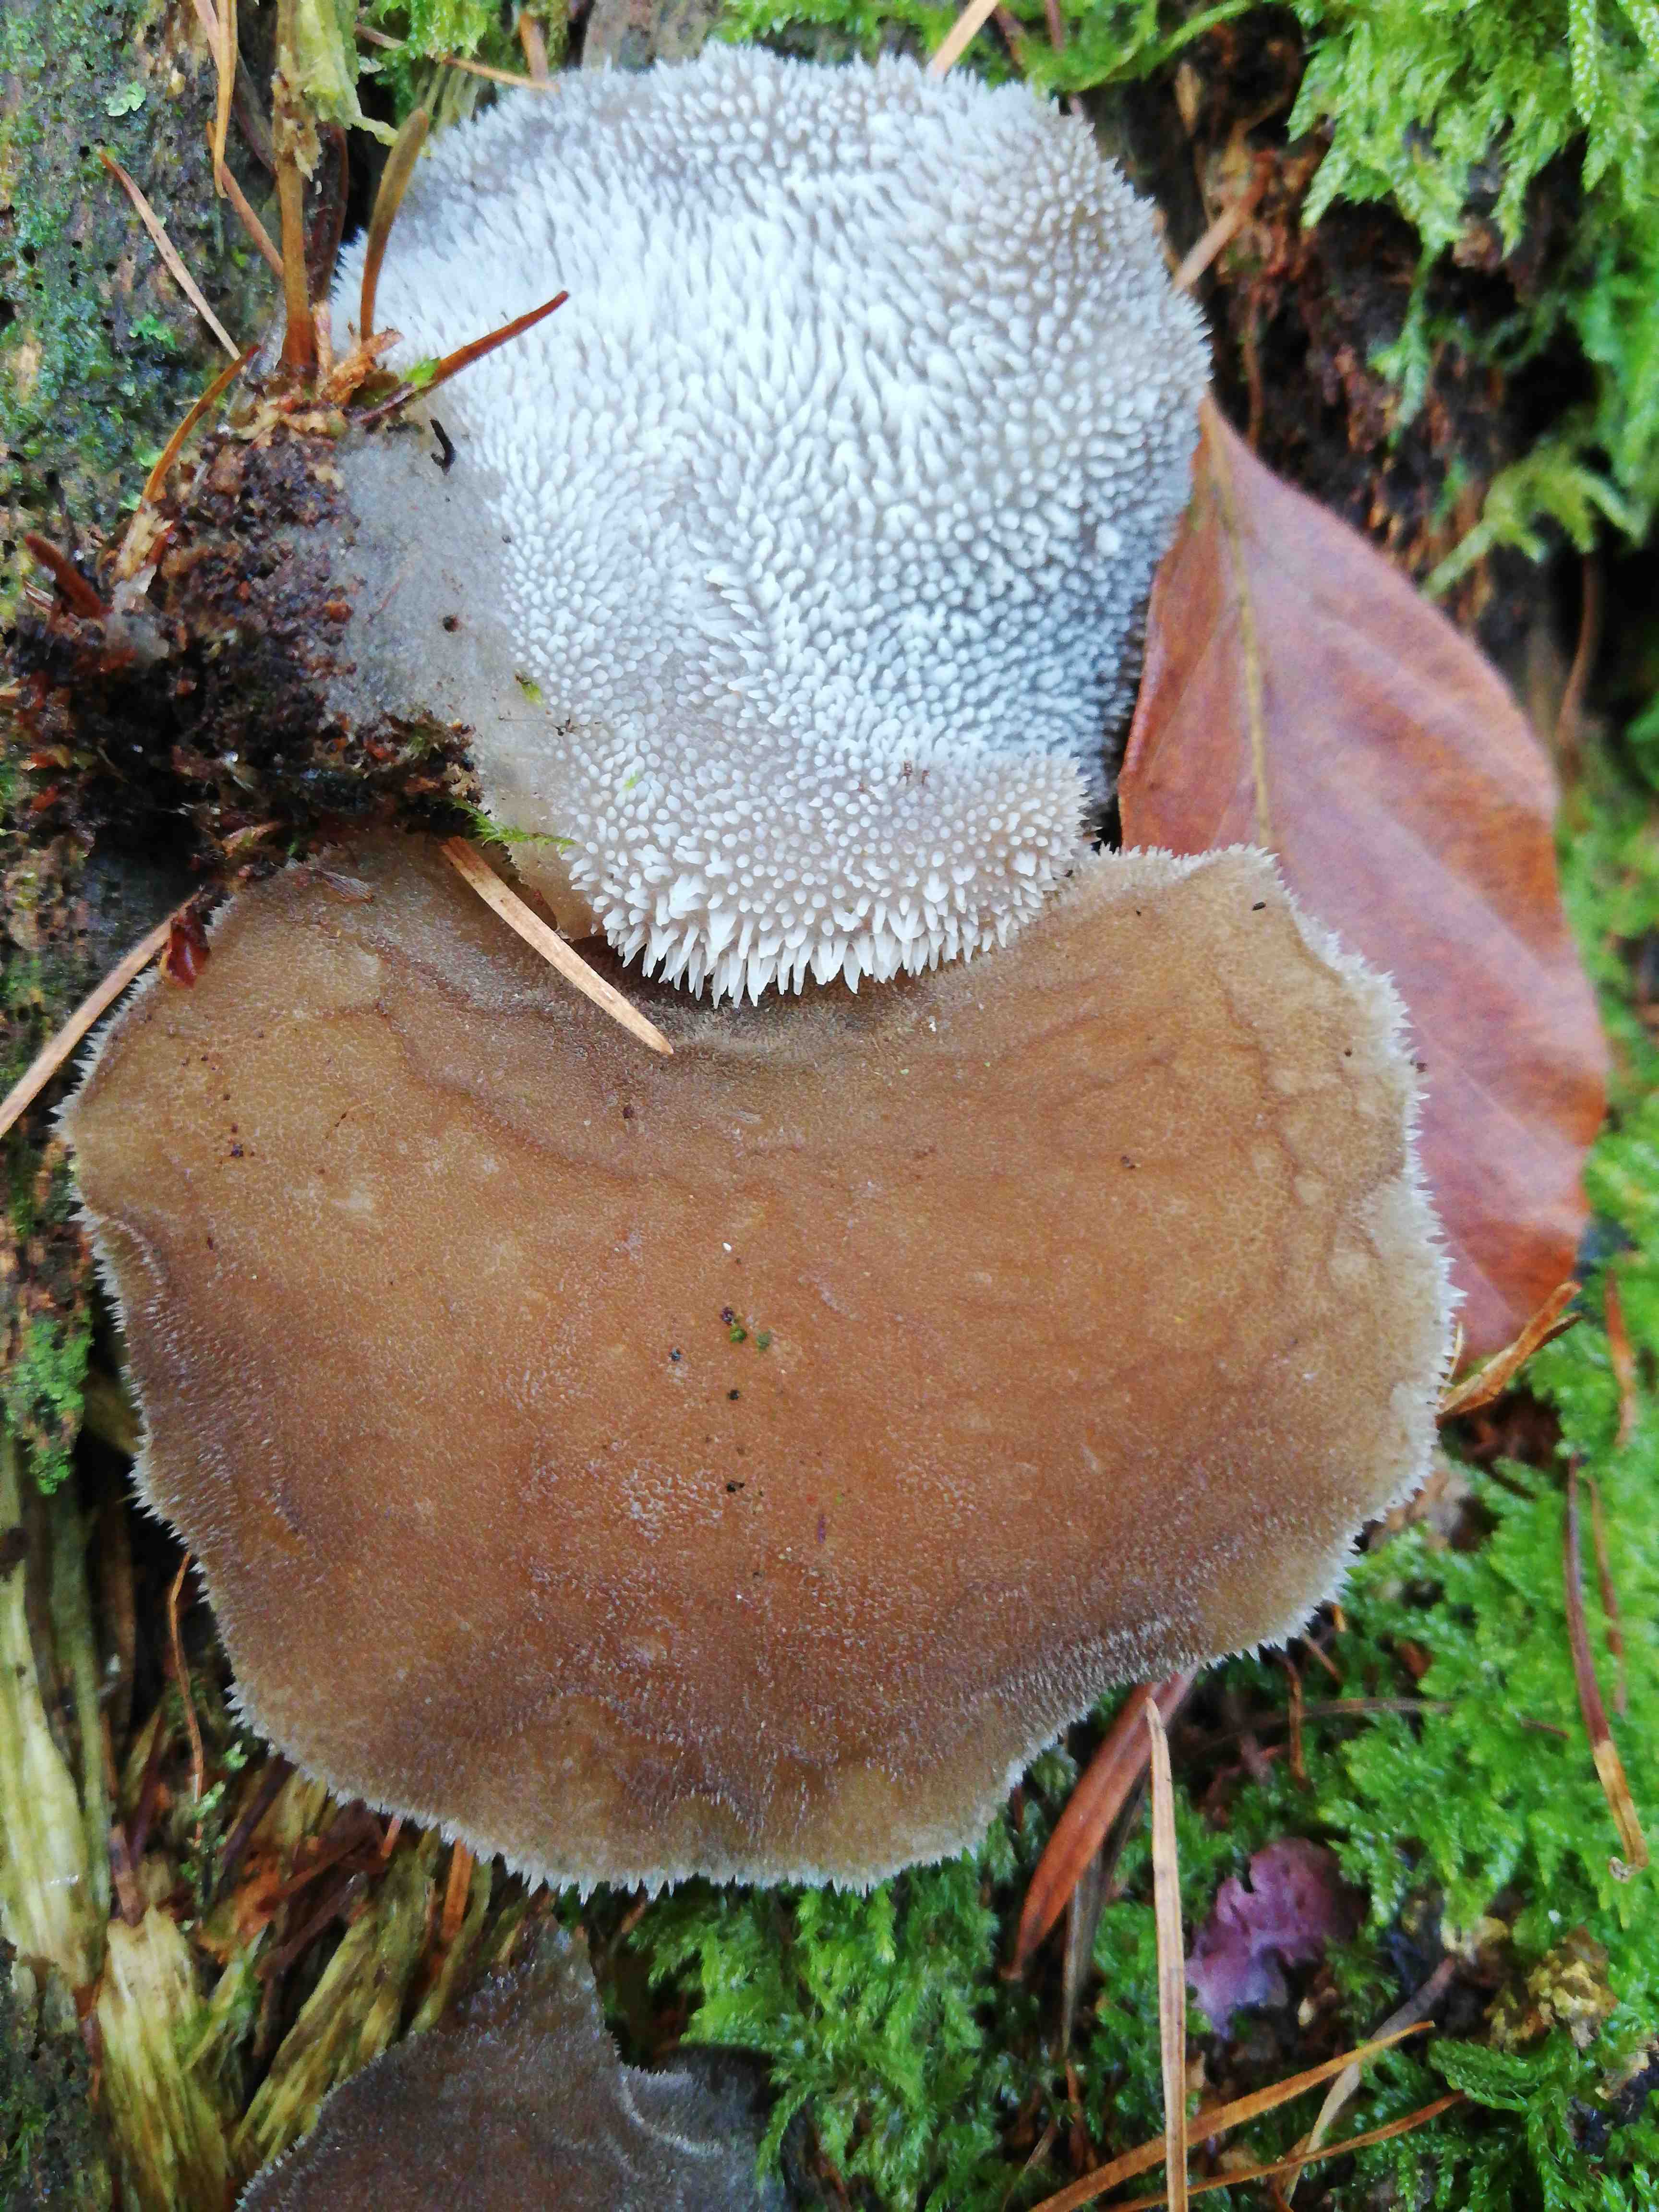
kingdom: Fungi
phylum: Basidiomycota
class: Agaricomycetes
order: Auriculariales
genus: Pseudohydnum
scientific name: Pseudohydnum gelatinosum
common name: bævretand
